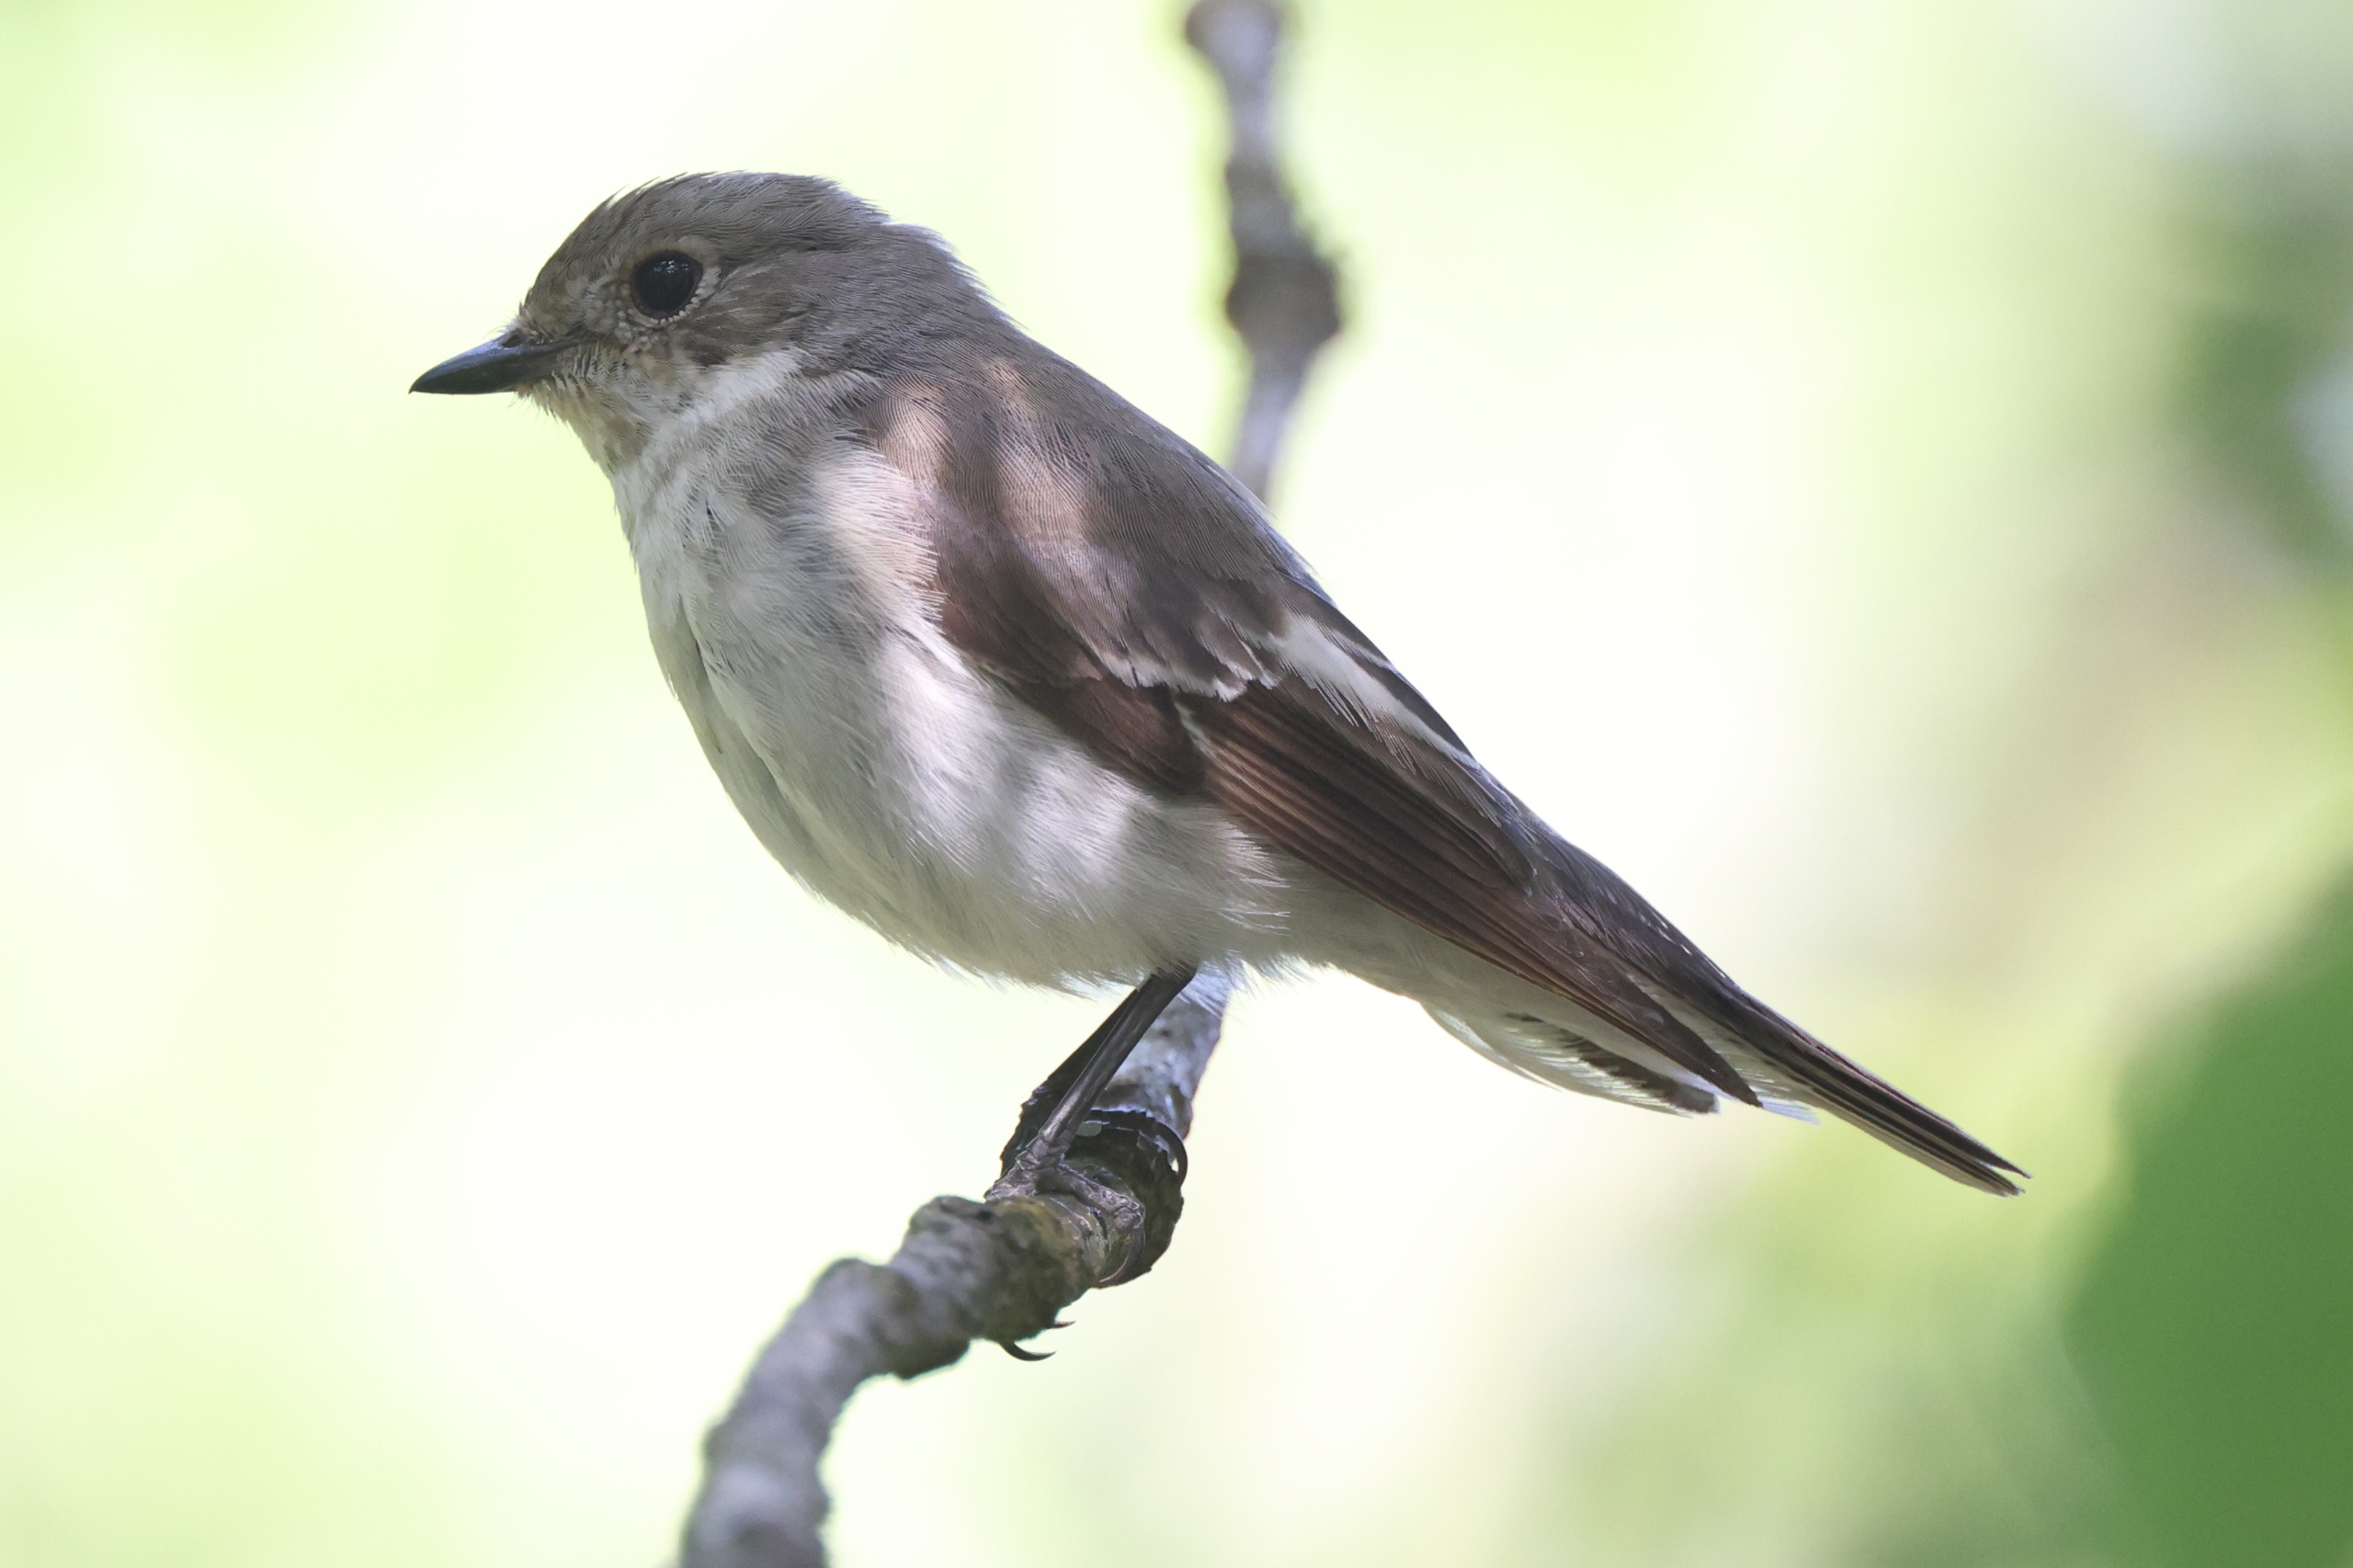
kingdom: Animalia
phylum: Chordata
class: Aves
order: Passeriformes
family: Muscicapidae
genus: Ficedula
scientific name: Ficedula hypoleuca
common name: Broget fluesnapper
